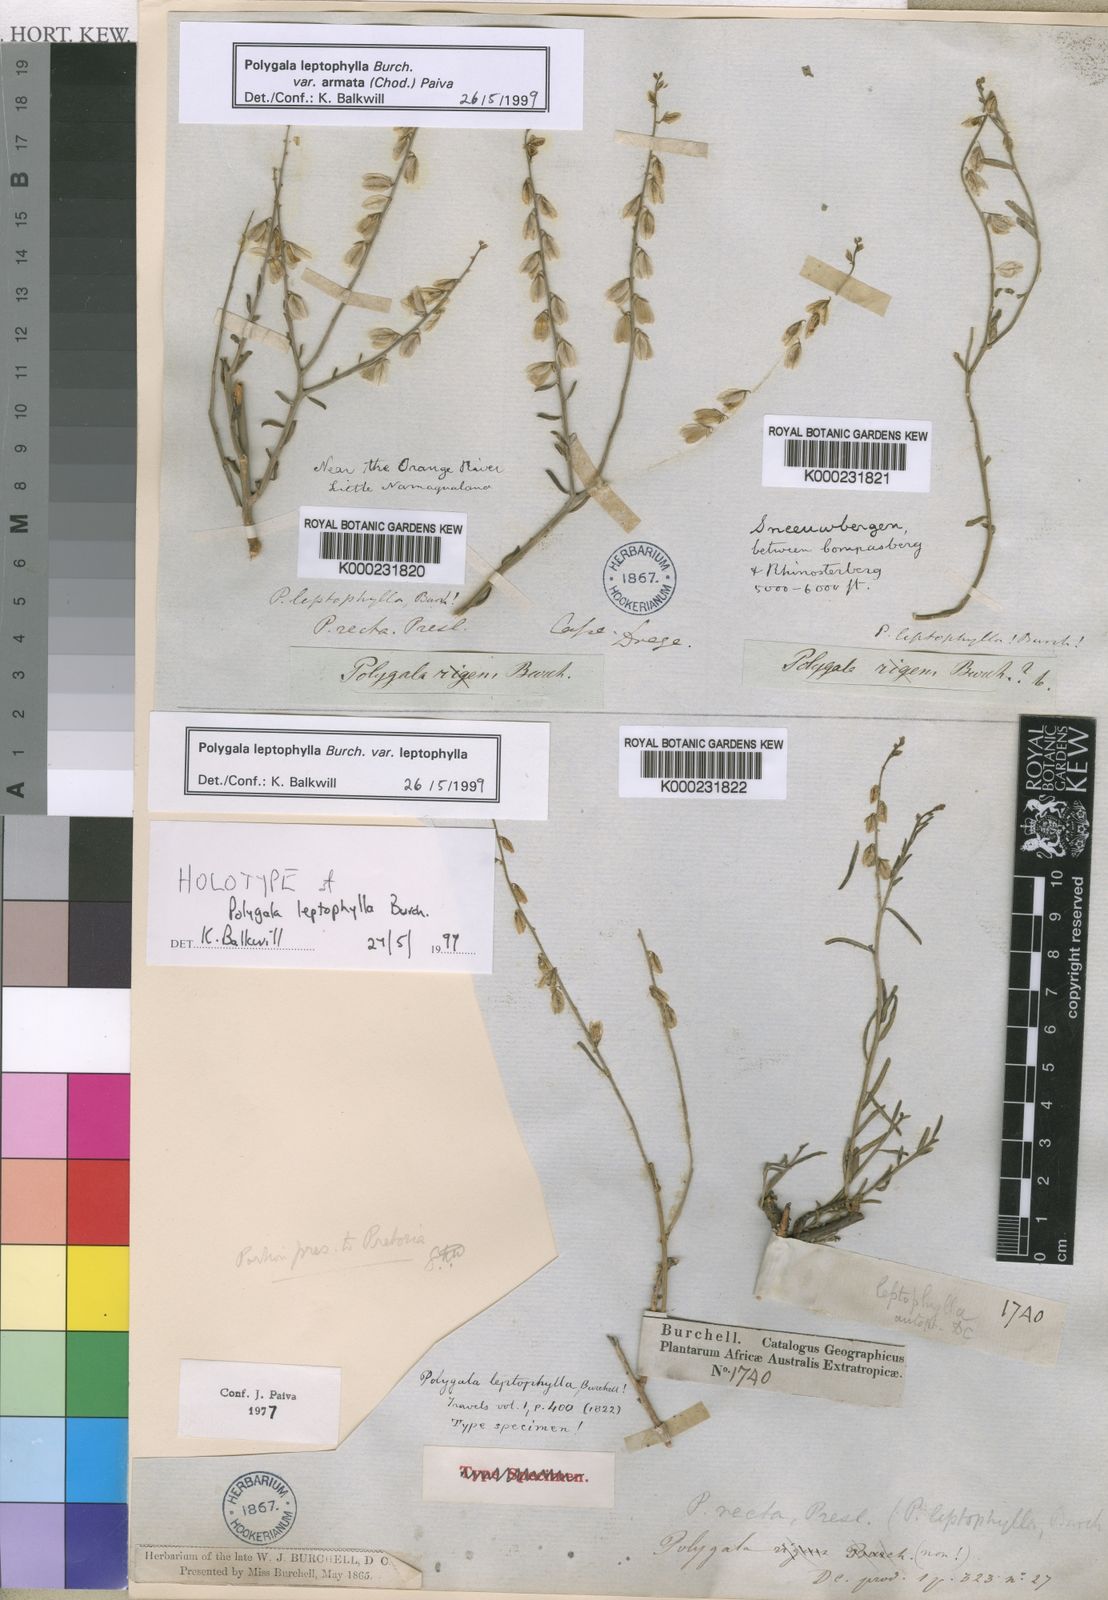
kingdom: Plantae
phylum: Tracheophyta
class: Magnoliopsida
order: Fabales
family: Polygalaceae
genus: Polygala
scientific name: Polygala
